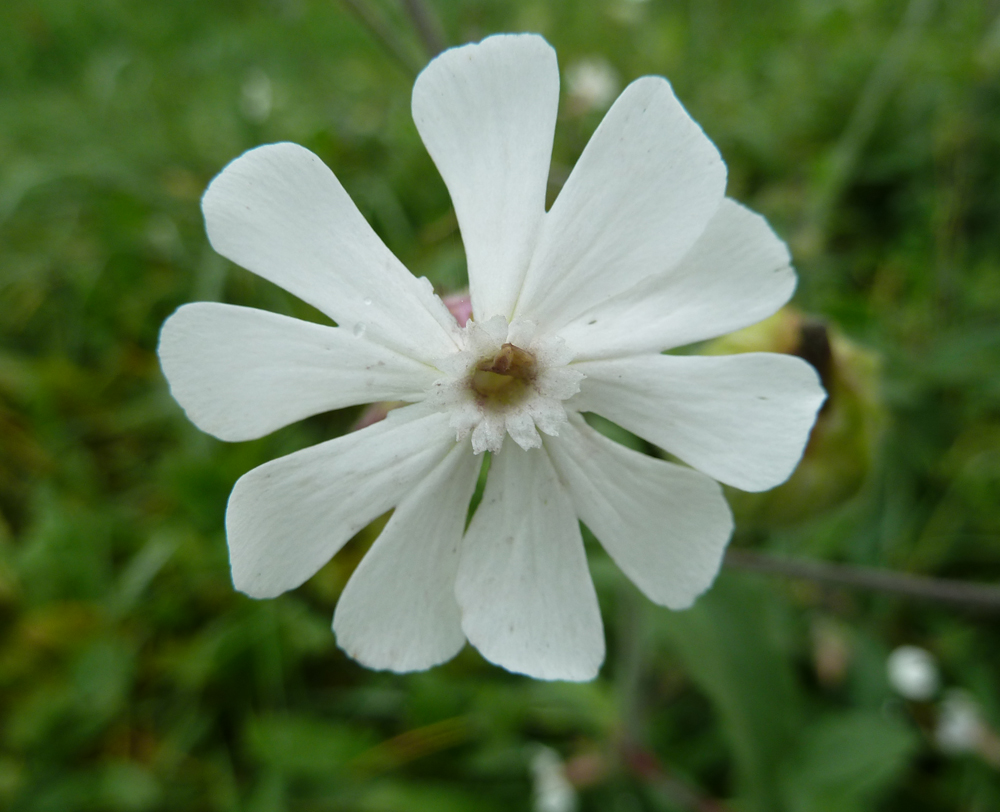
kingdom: Plantae
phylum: Tracheophyta
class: Magnoliopsida
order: Caryophyllales
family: Caryophyllaceae
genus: Silene
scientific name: Silene latifolia
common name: White campion
